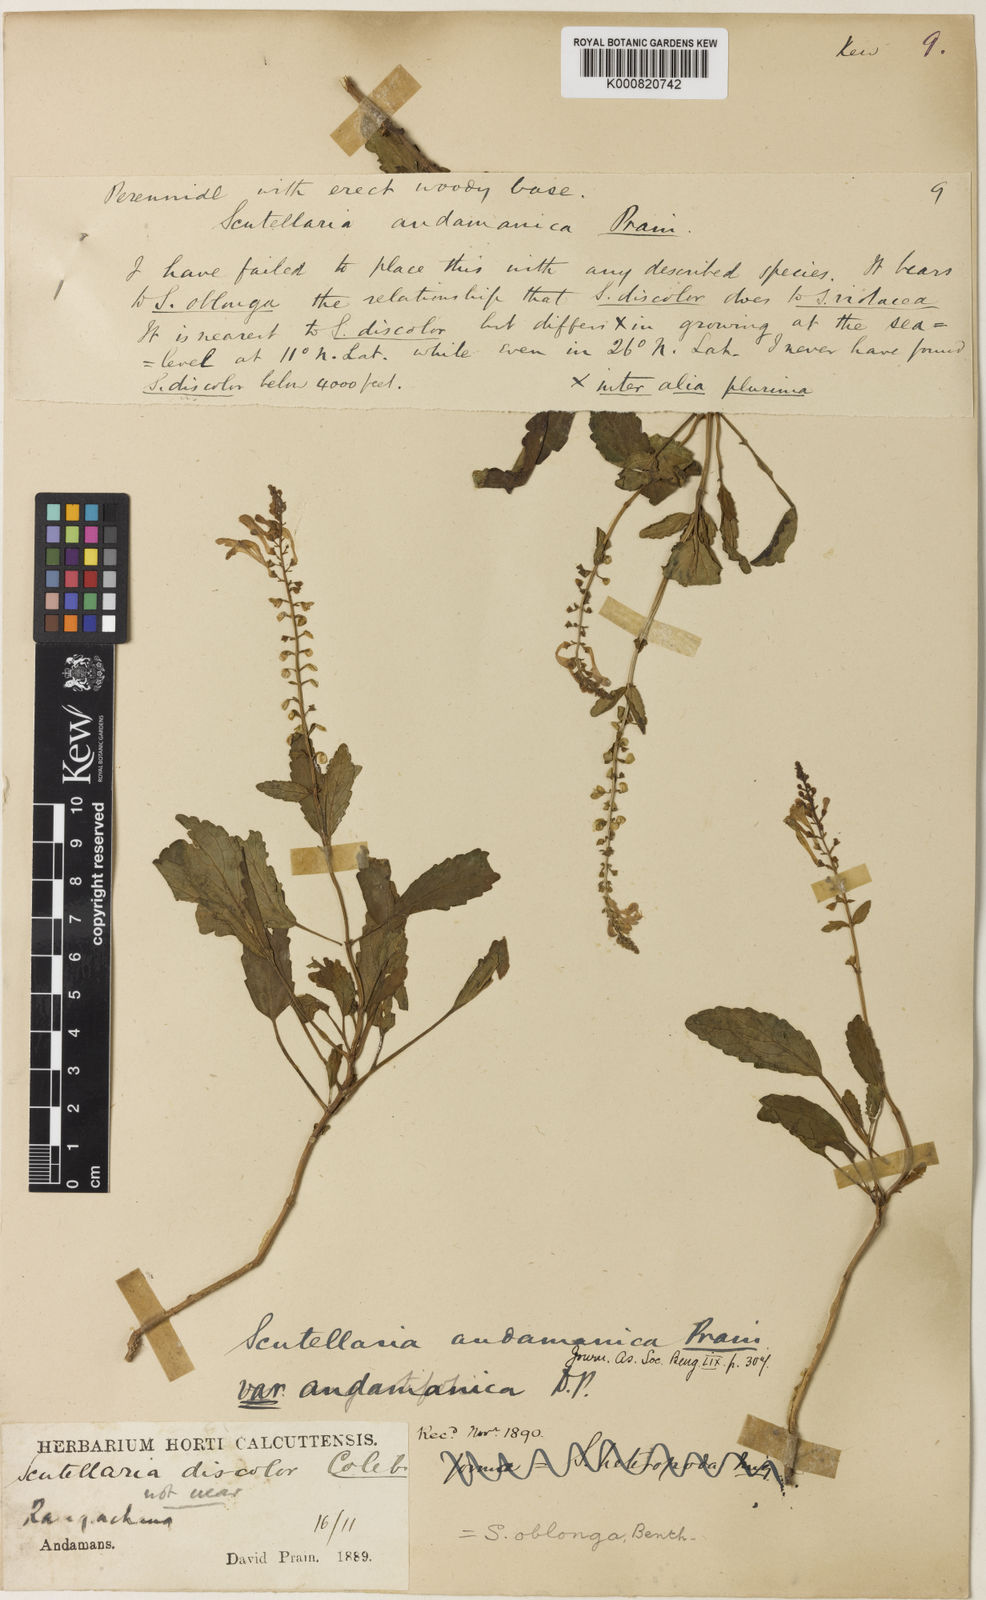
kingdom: Plantae
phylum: Tracheophyta
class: Magnoliopsida
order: Lamiales
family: Lamiaceae
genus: Scutellaria
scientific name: Scutellaria andamanica
